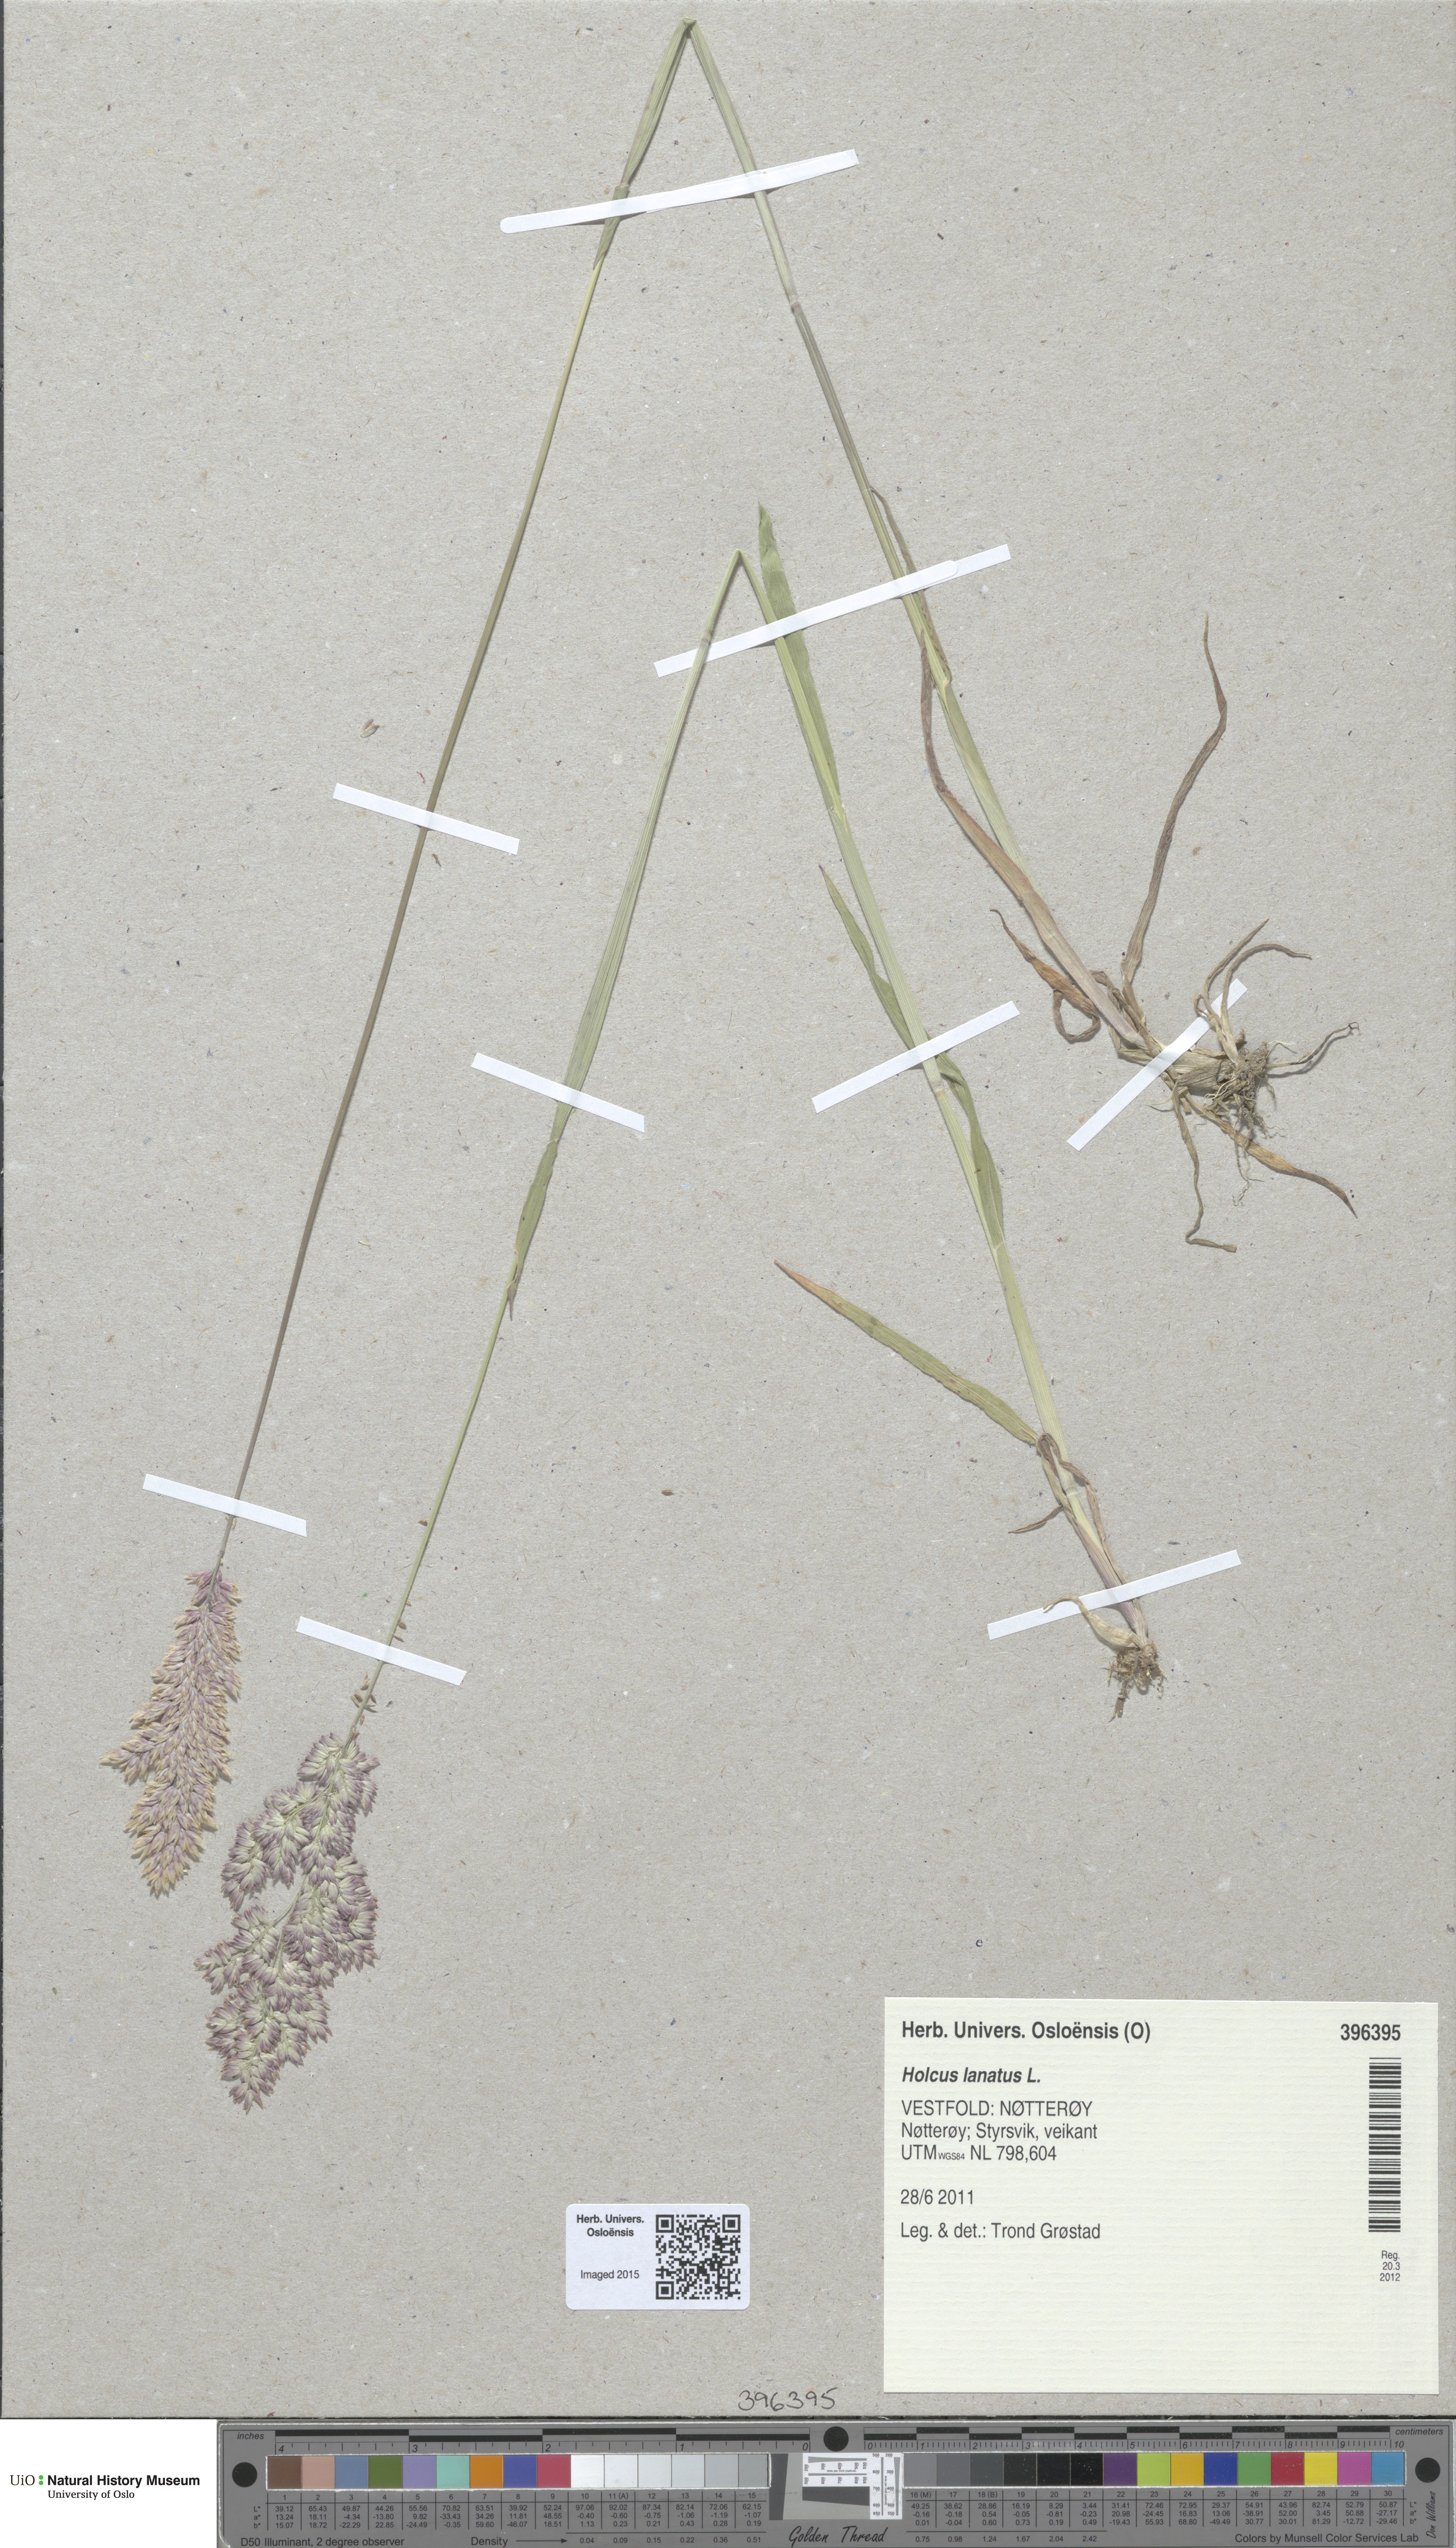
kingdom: Plantae
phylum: Tracheophyta
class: Liliopsida
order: Poales
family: Poaceae
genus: Holcus
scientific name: Holcus lanatus
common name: Yorkshire-fog
